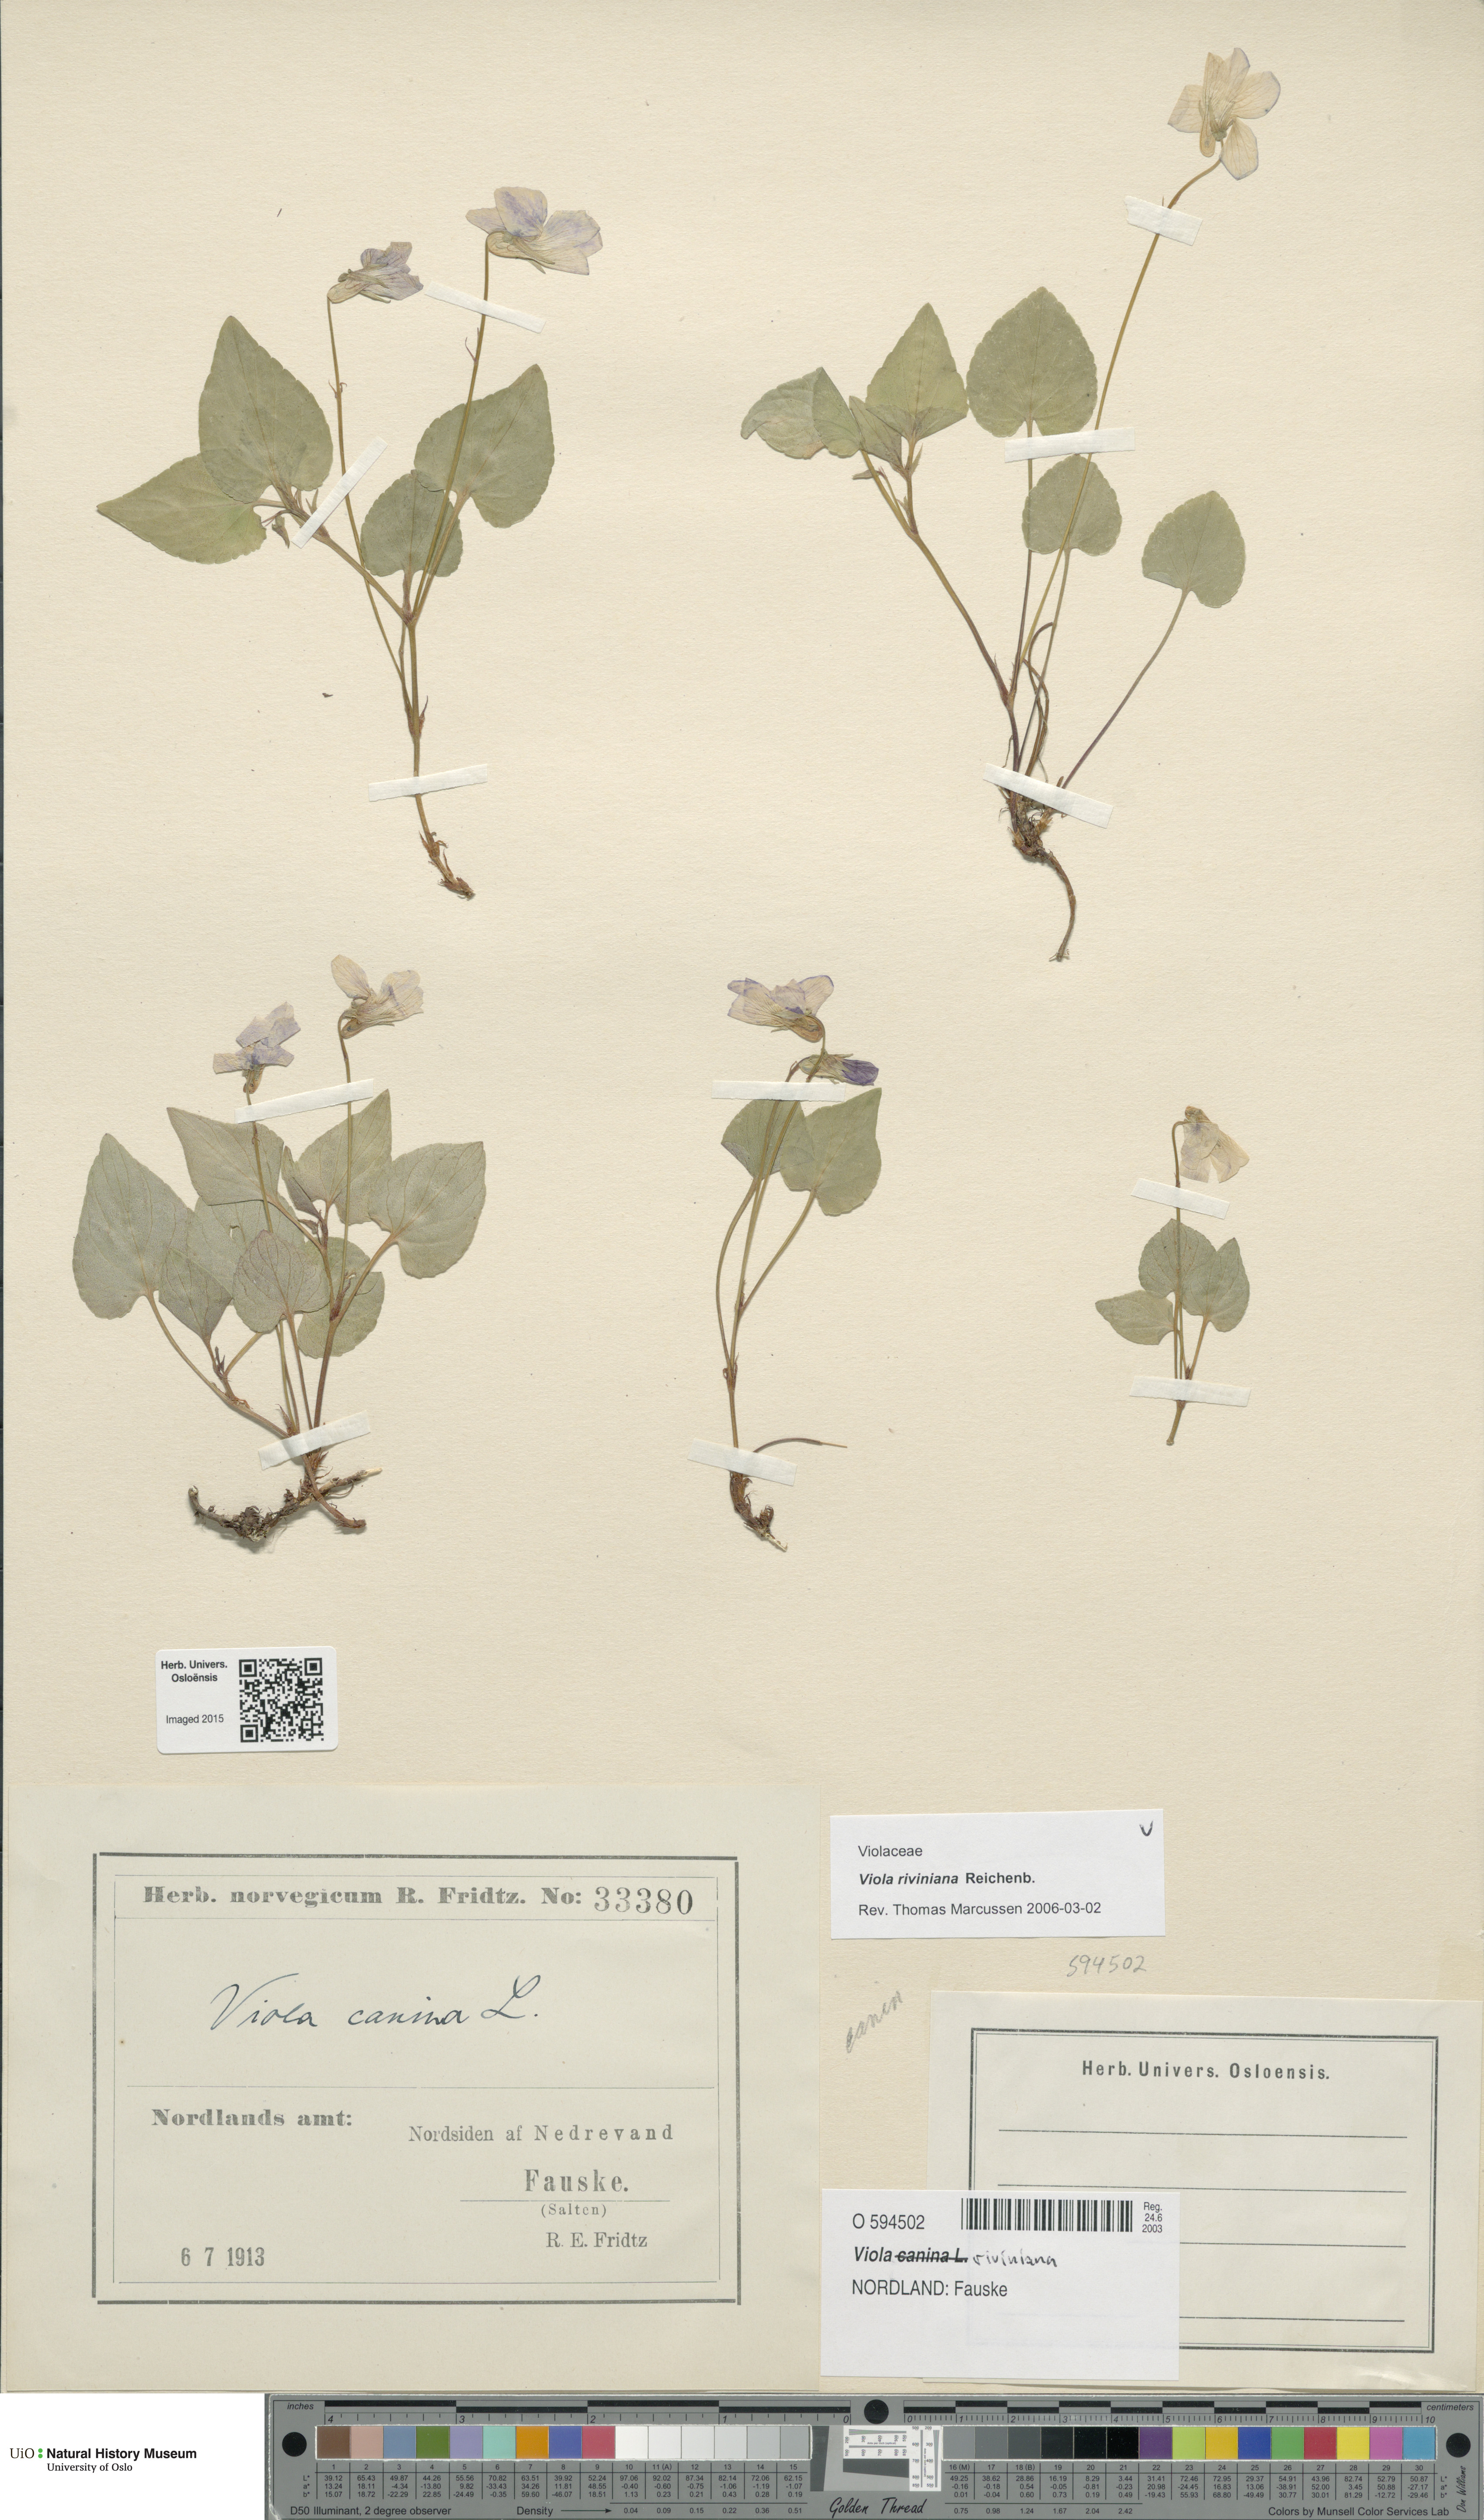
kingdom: Plantae
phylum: Tracheophyta
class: Magnoliopsida
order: Malpighiales
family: Violaceae
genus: Viola
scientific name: Viola riviniana
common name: Common dog-violet
